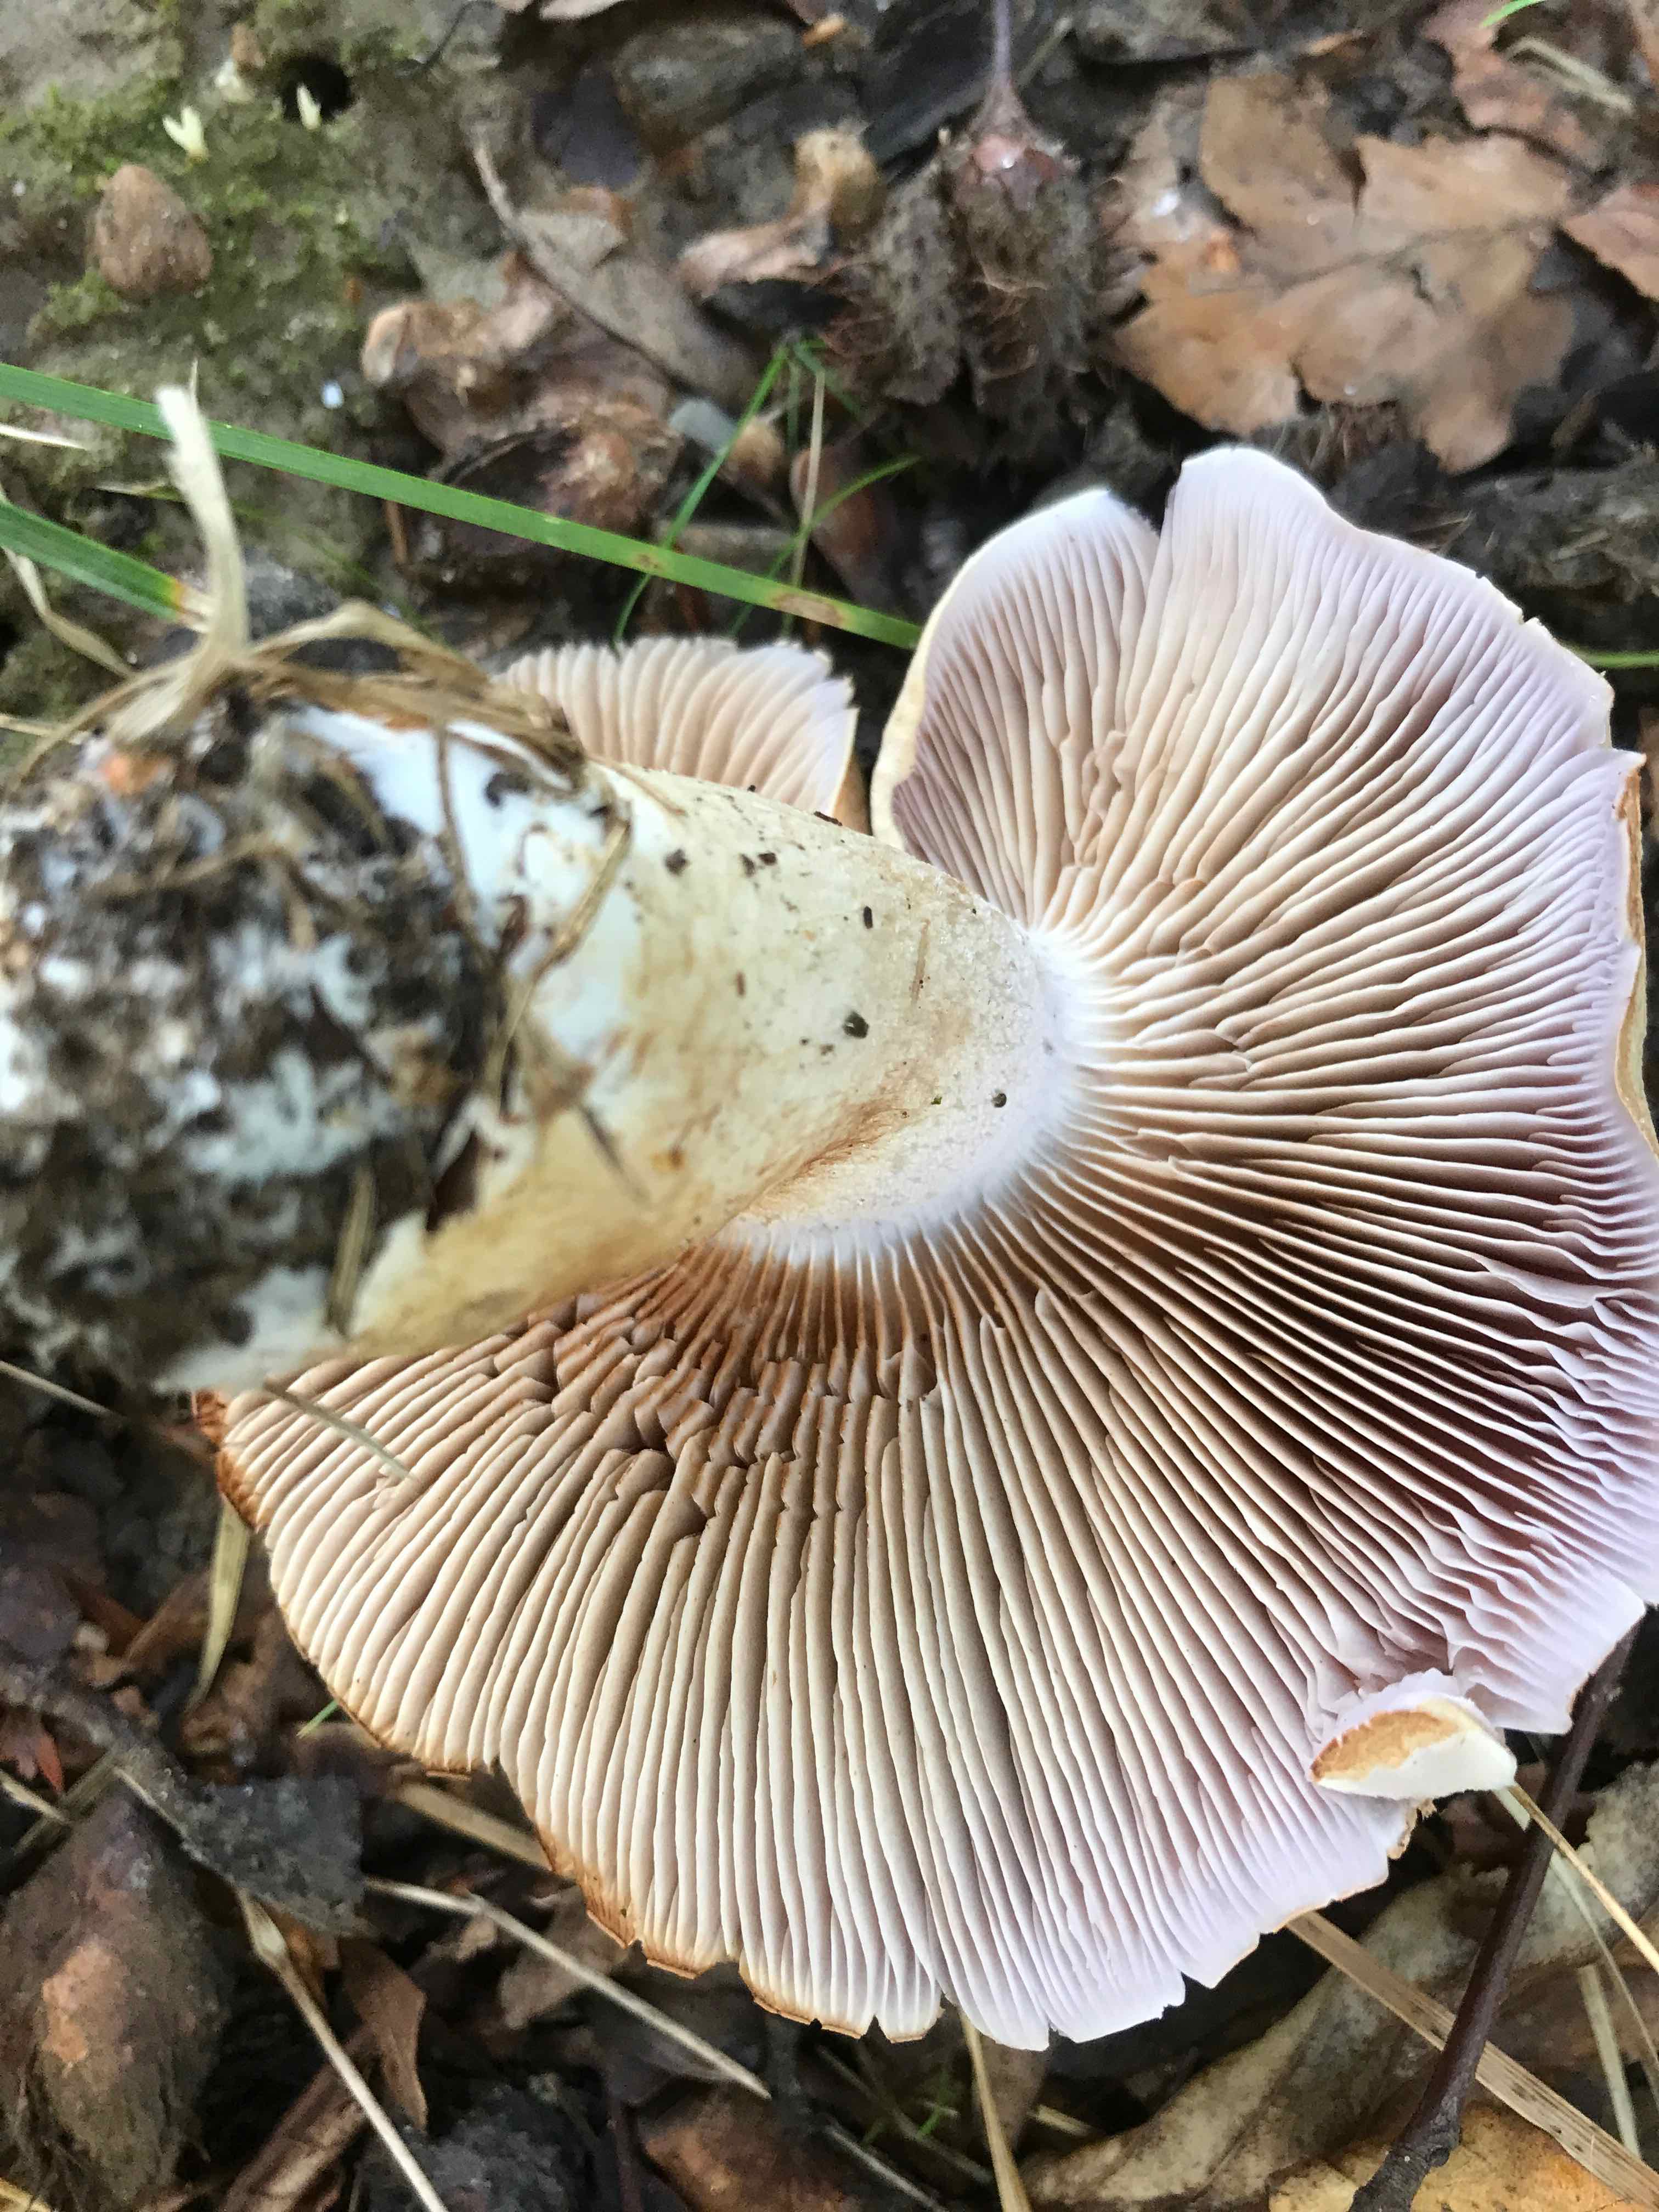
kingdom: Fungi
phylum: Basidiomycota
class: Agaricomycetes
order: Agaricales
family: Cortinariaceae
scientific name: Cortinariaceae
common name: slørhatfamilien
